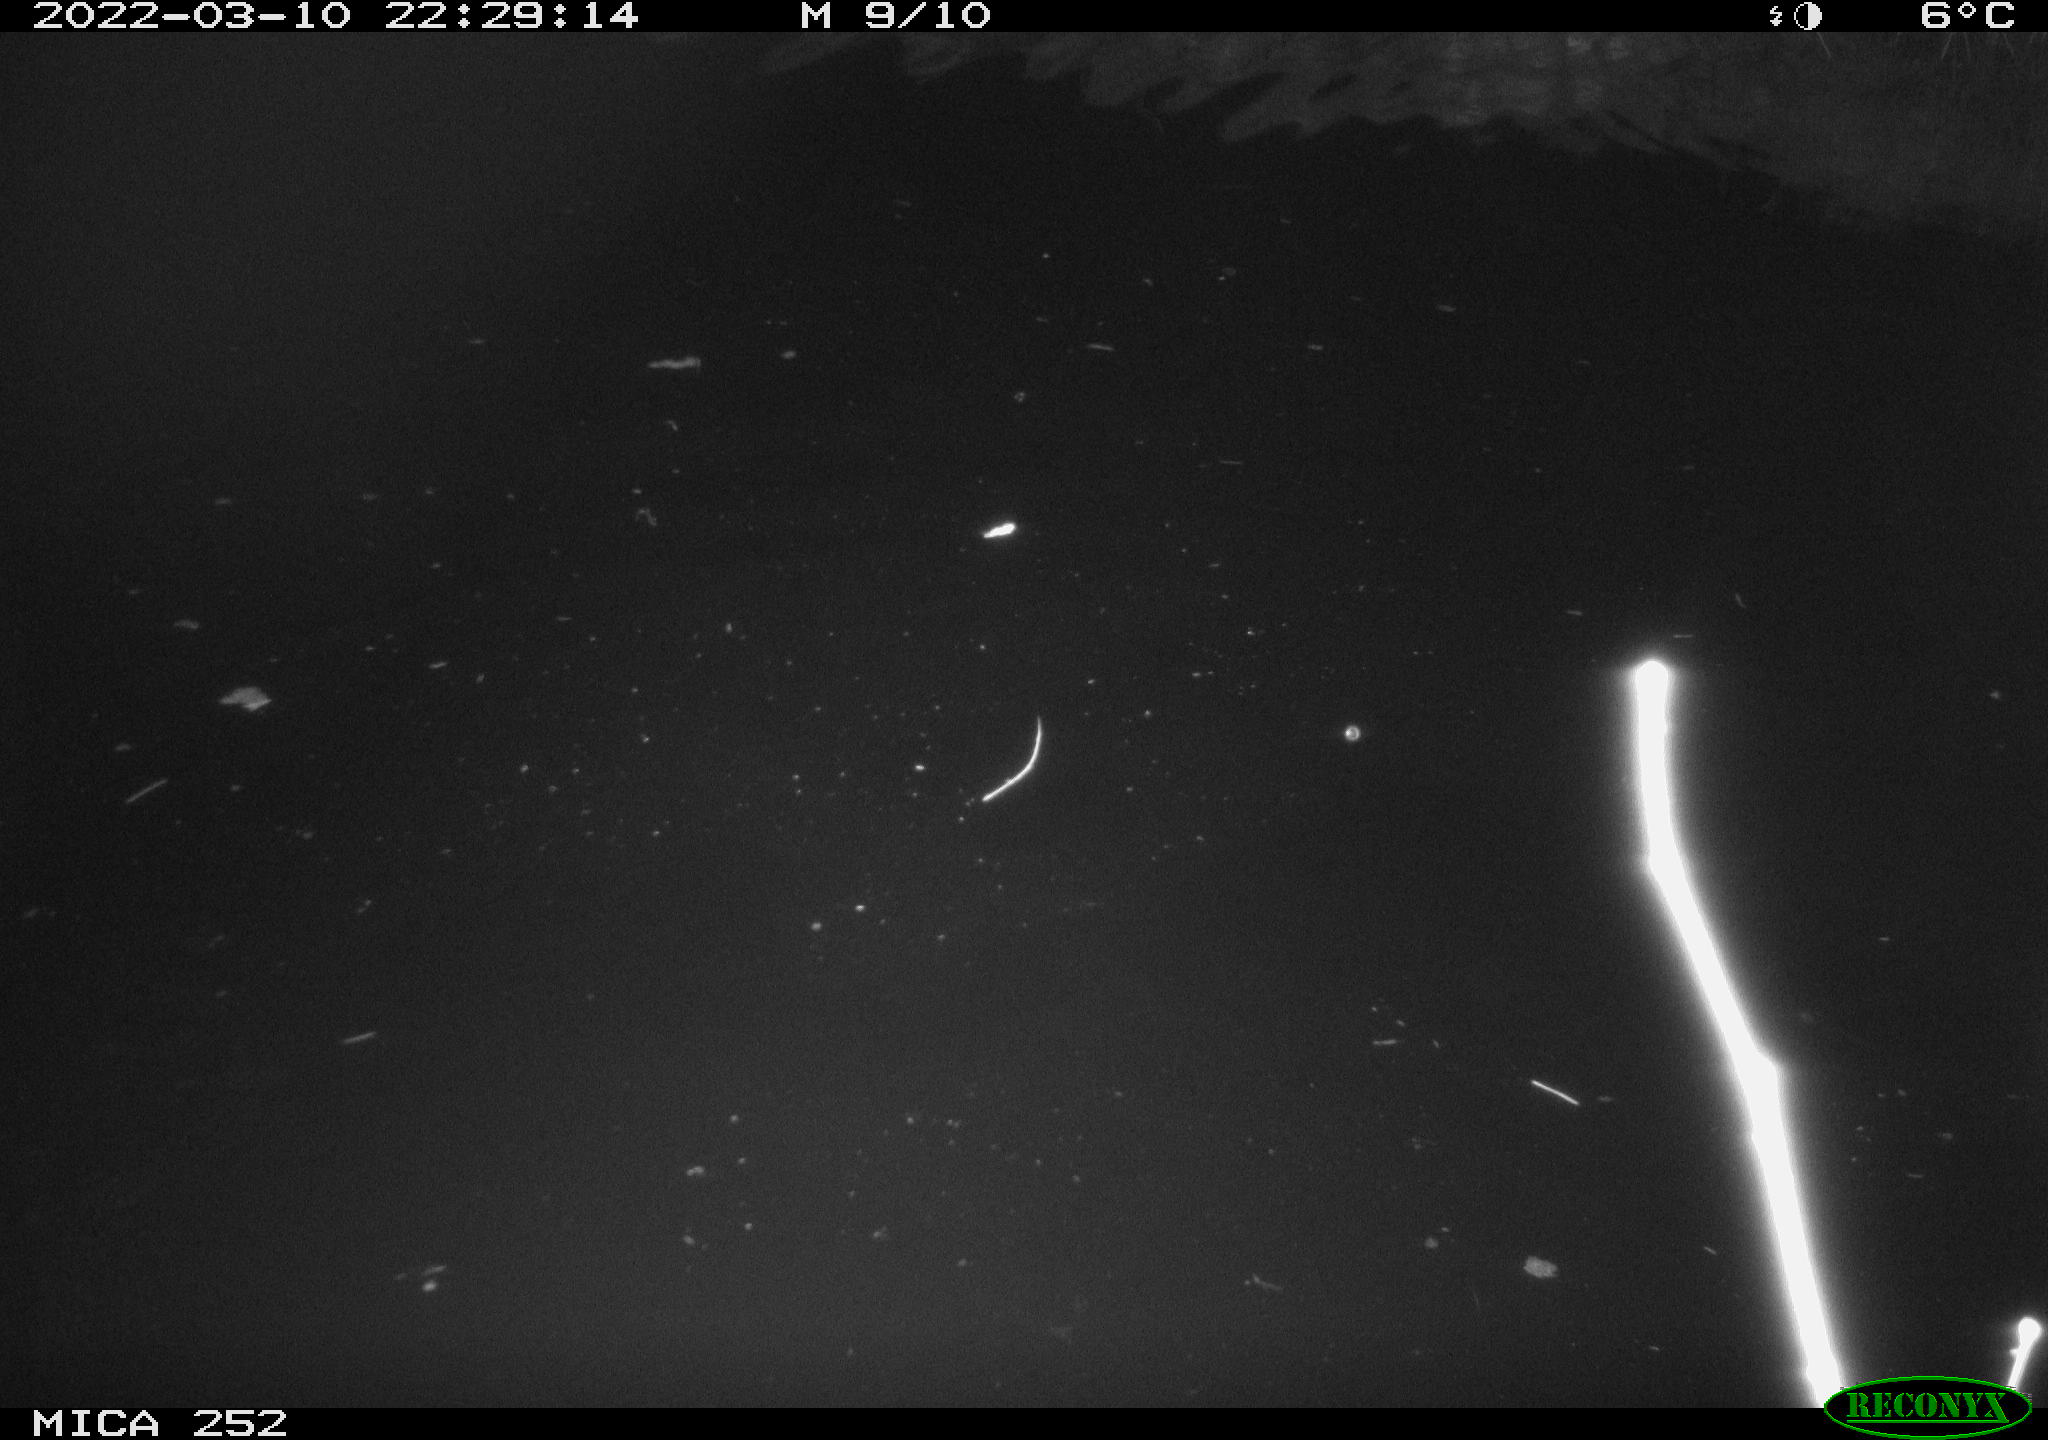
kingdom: Animalia
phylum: Chordata
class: Mammalia
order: Rodentia
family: Castoridae
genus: Castor
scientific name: Castor fiber
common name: Eurasian beaver
